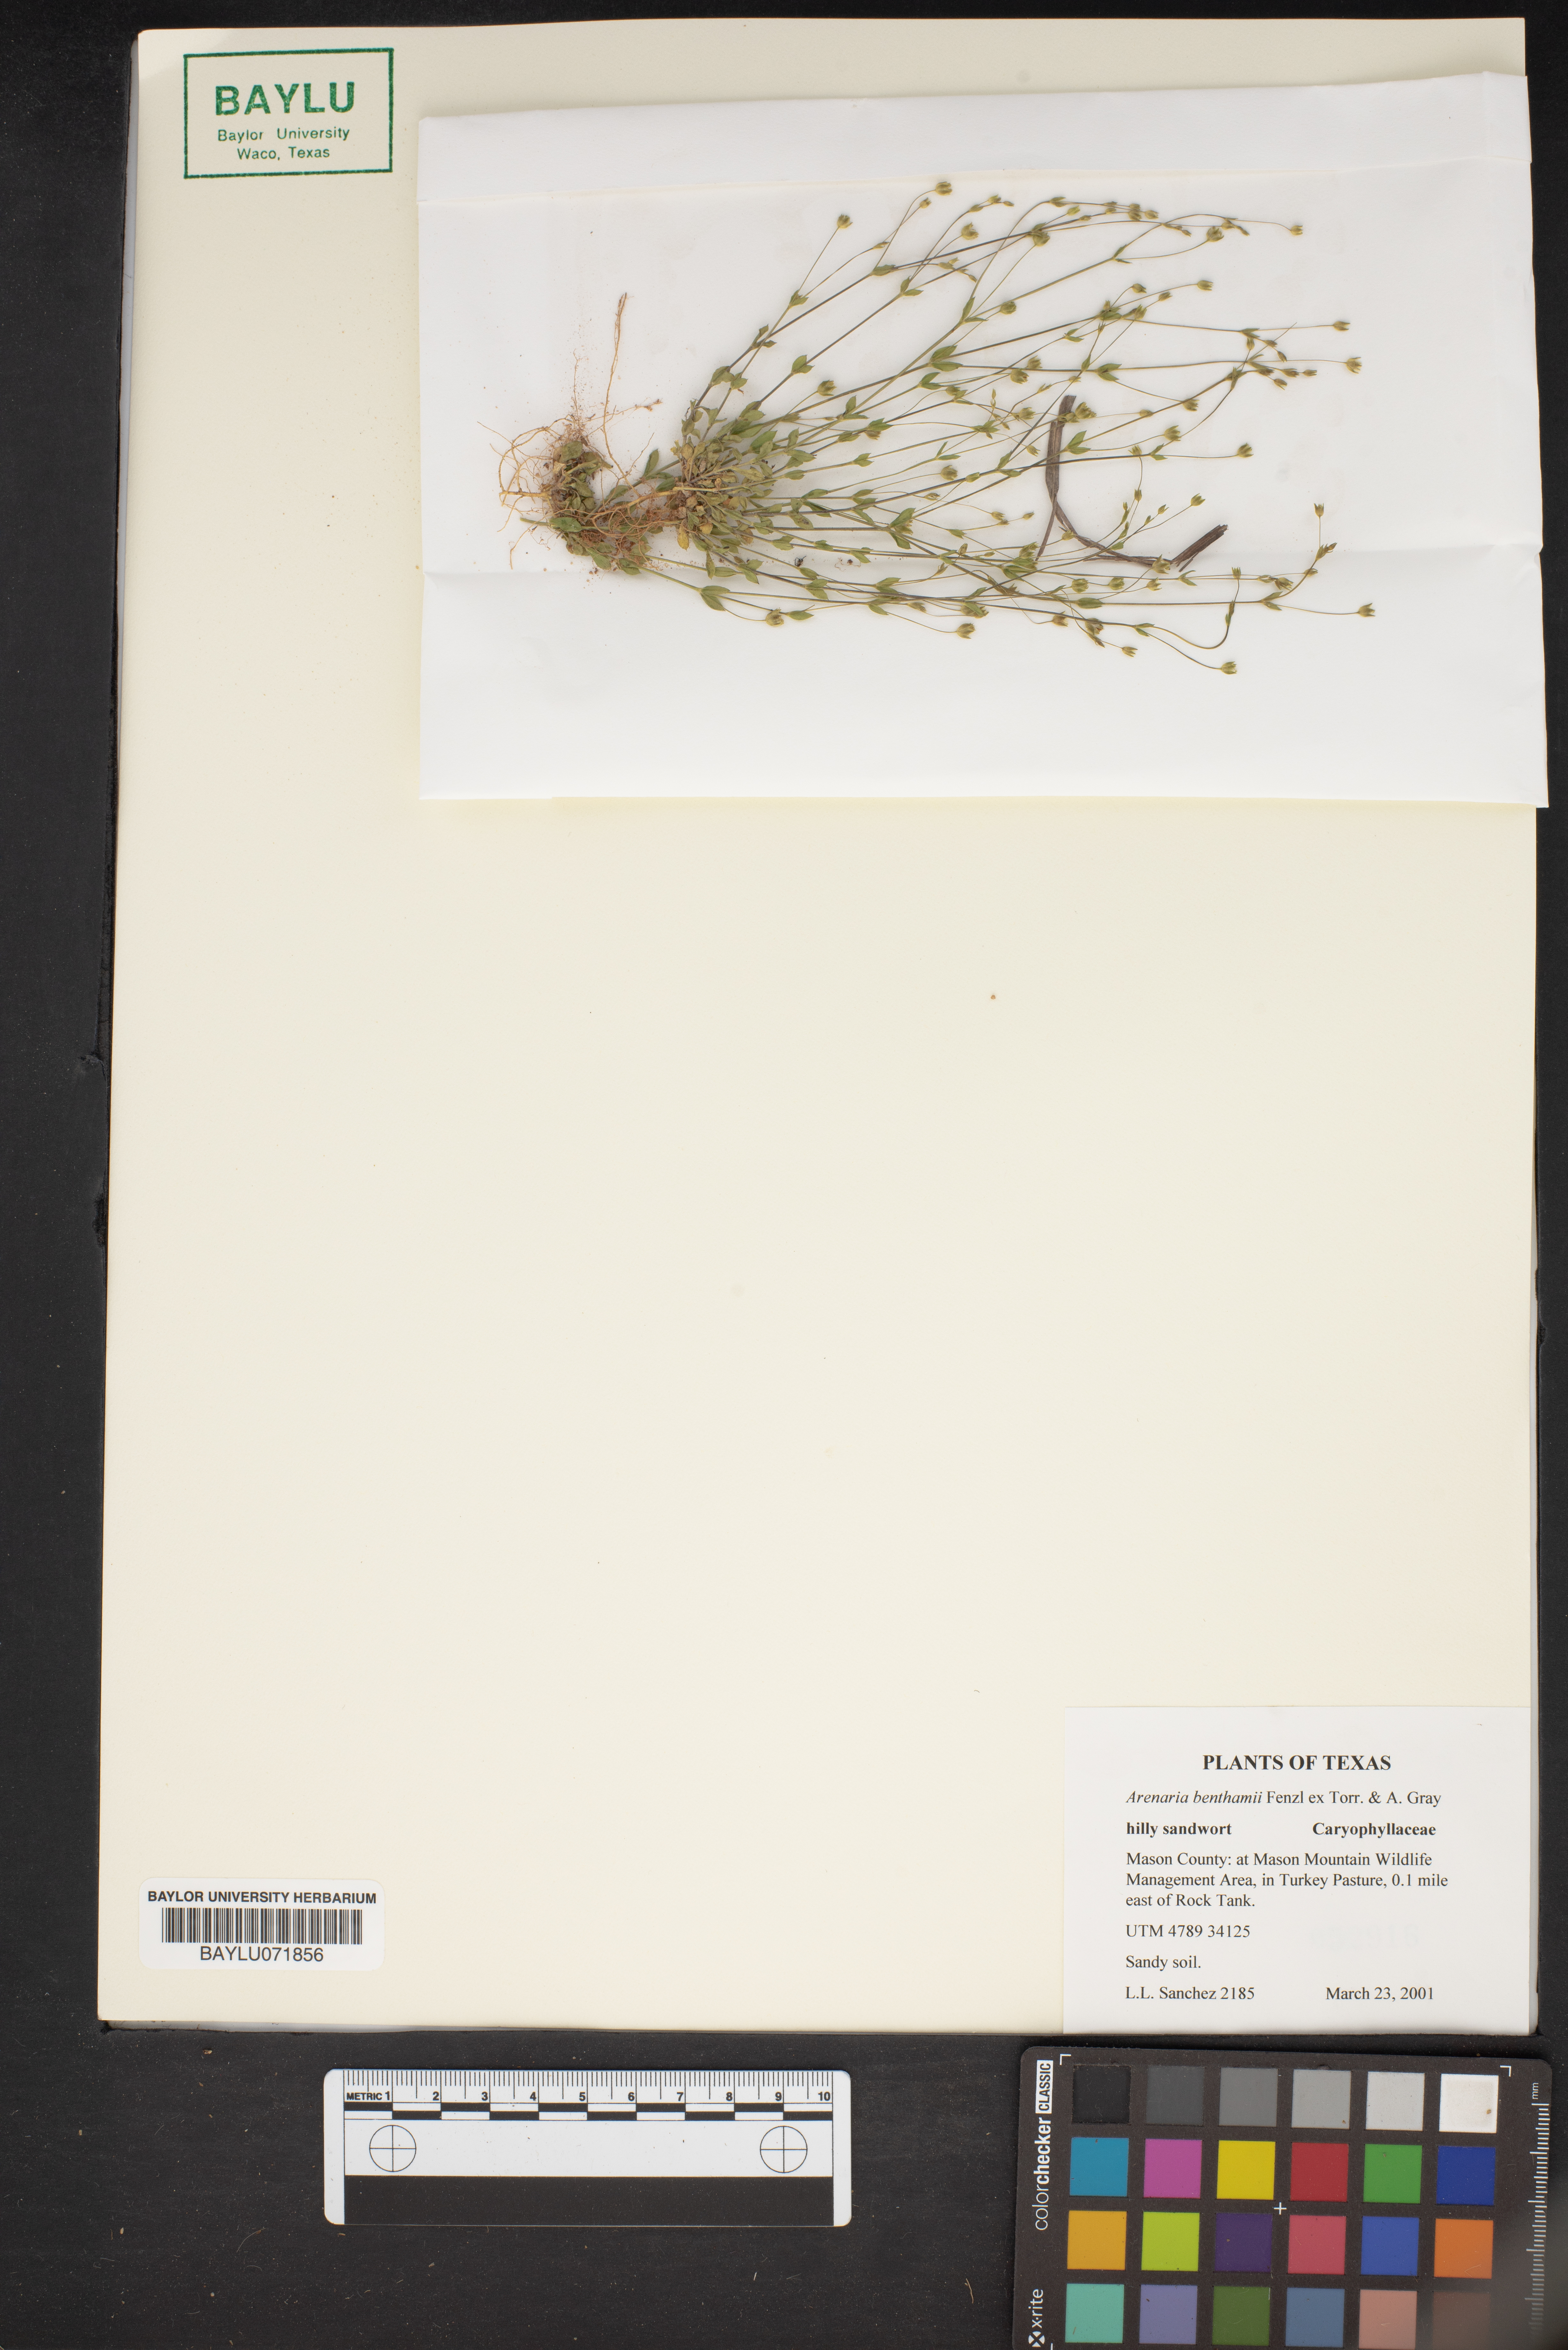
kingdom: Plantae
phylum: Tracheophyta
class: Magnoliopsida
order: Caryophyllales
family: Caryophyllaceae
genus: Arenaria
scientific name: Arenaria benthamii
